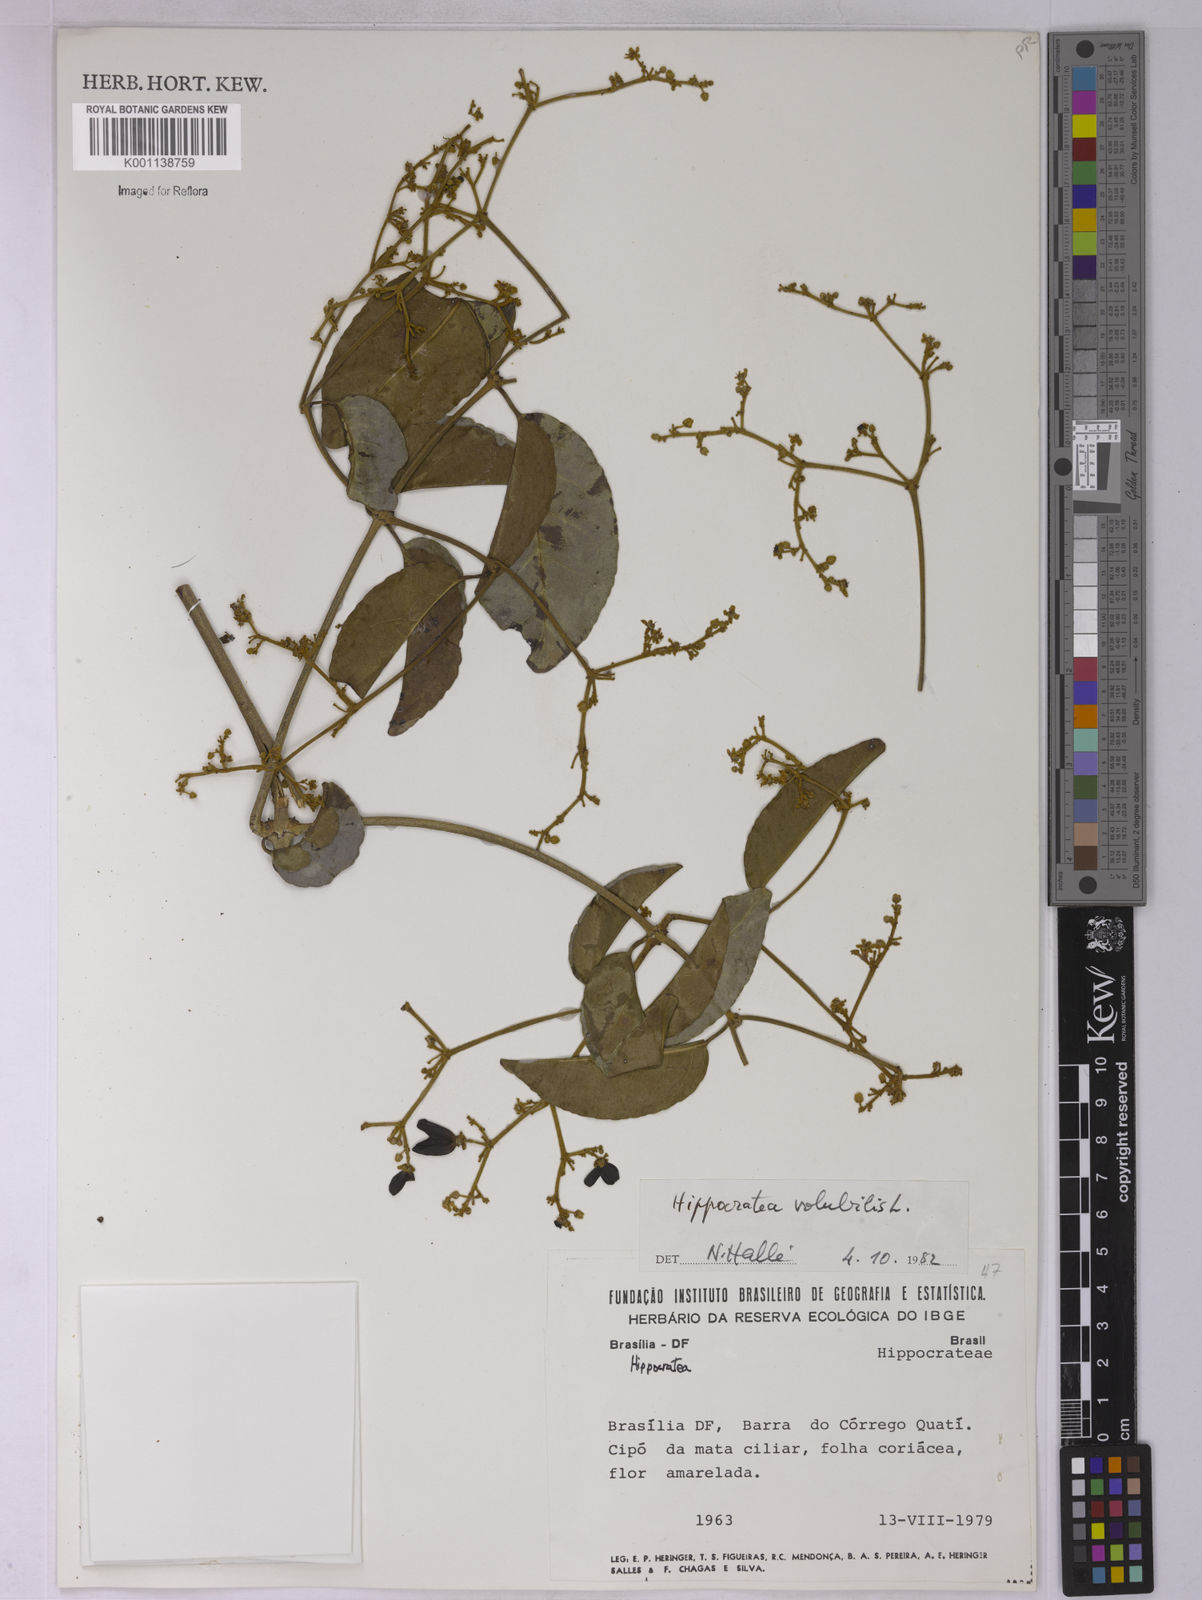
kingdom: Plantae
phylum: Tracheophyta
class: Magnoliopsida
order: Celastrales
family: Celastraceae
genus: Hippocratea
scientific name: Hippocratea volubilis
